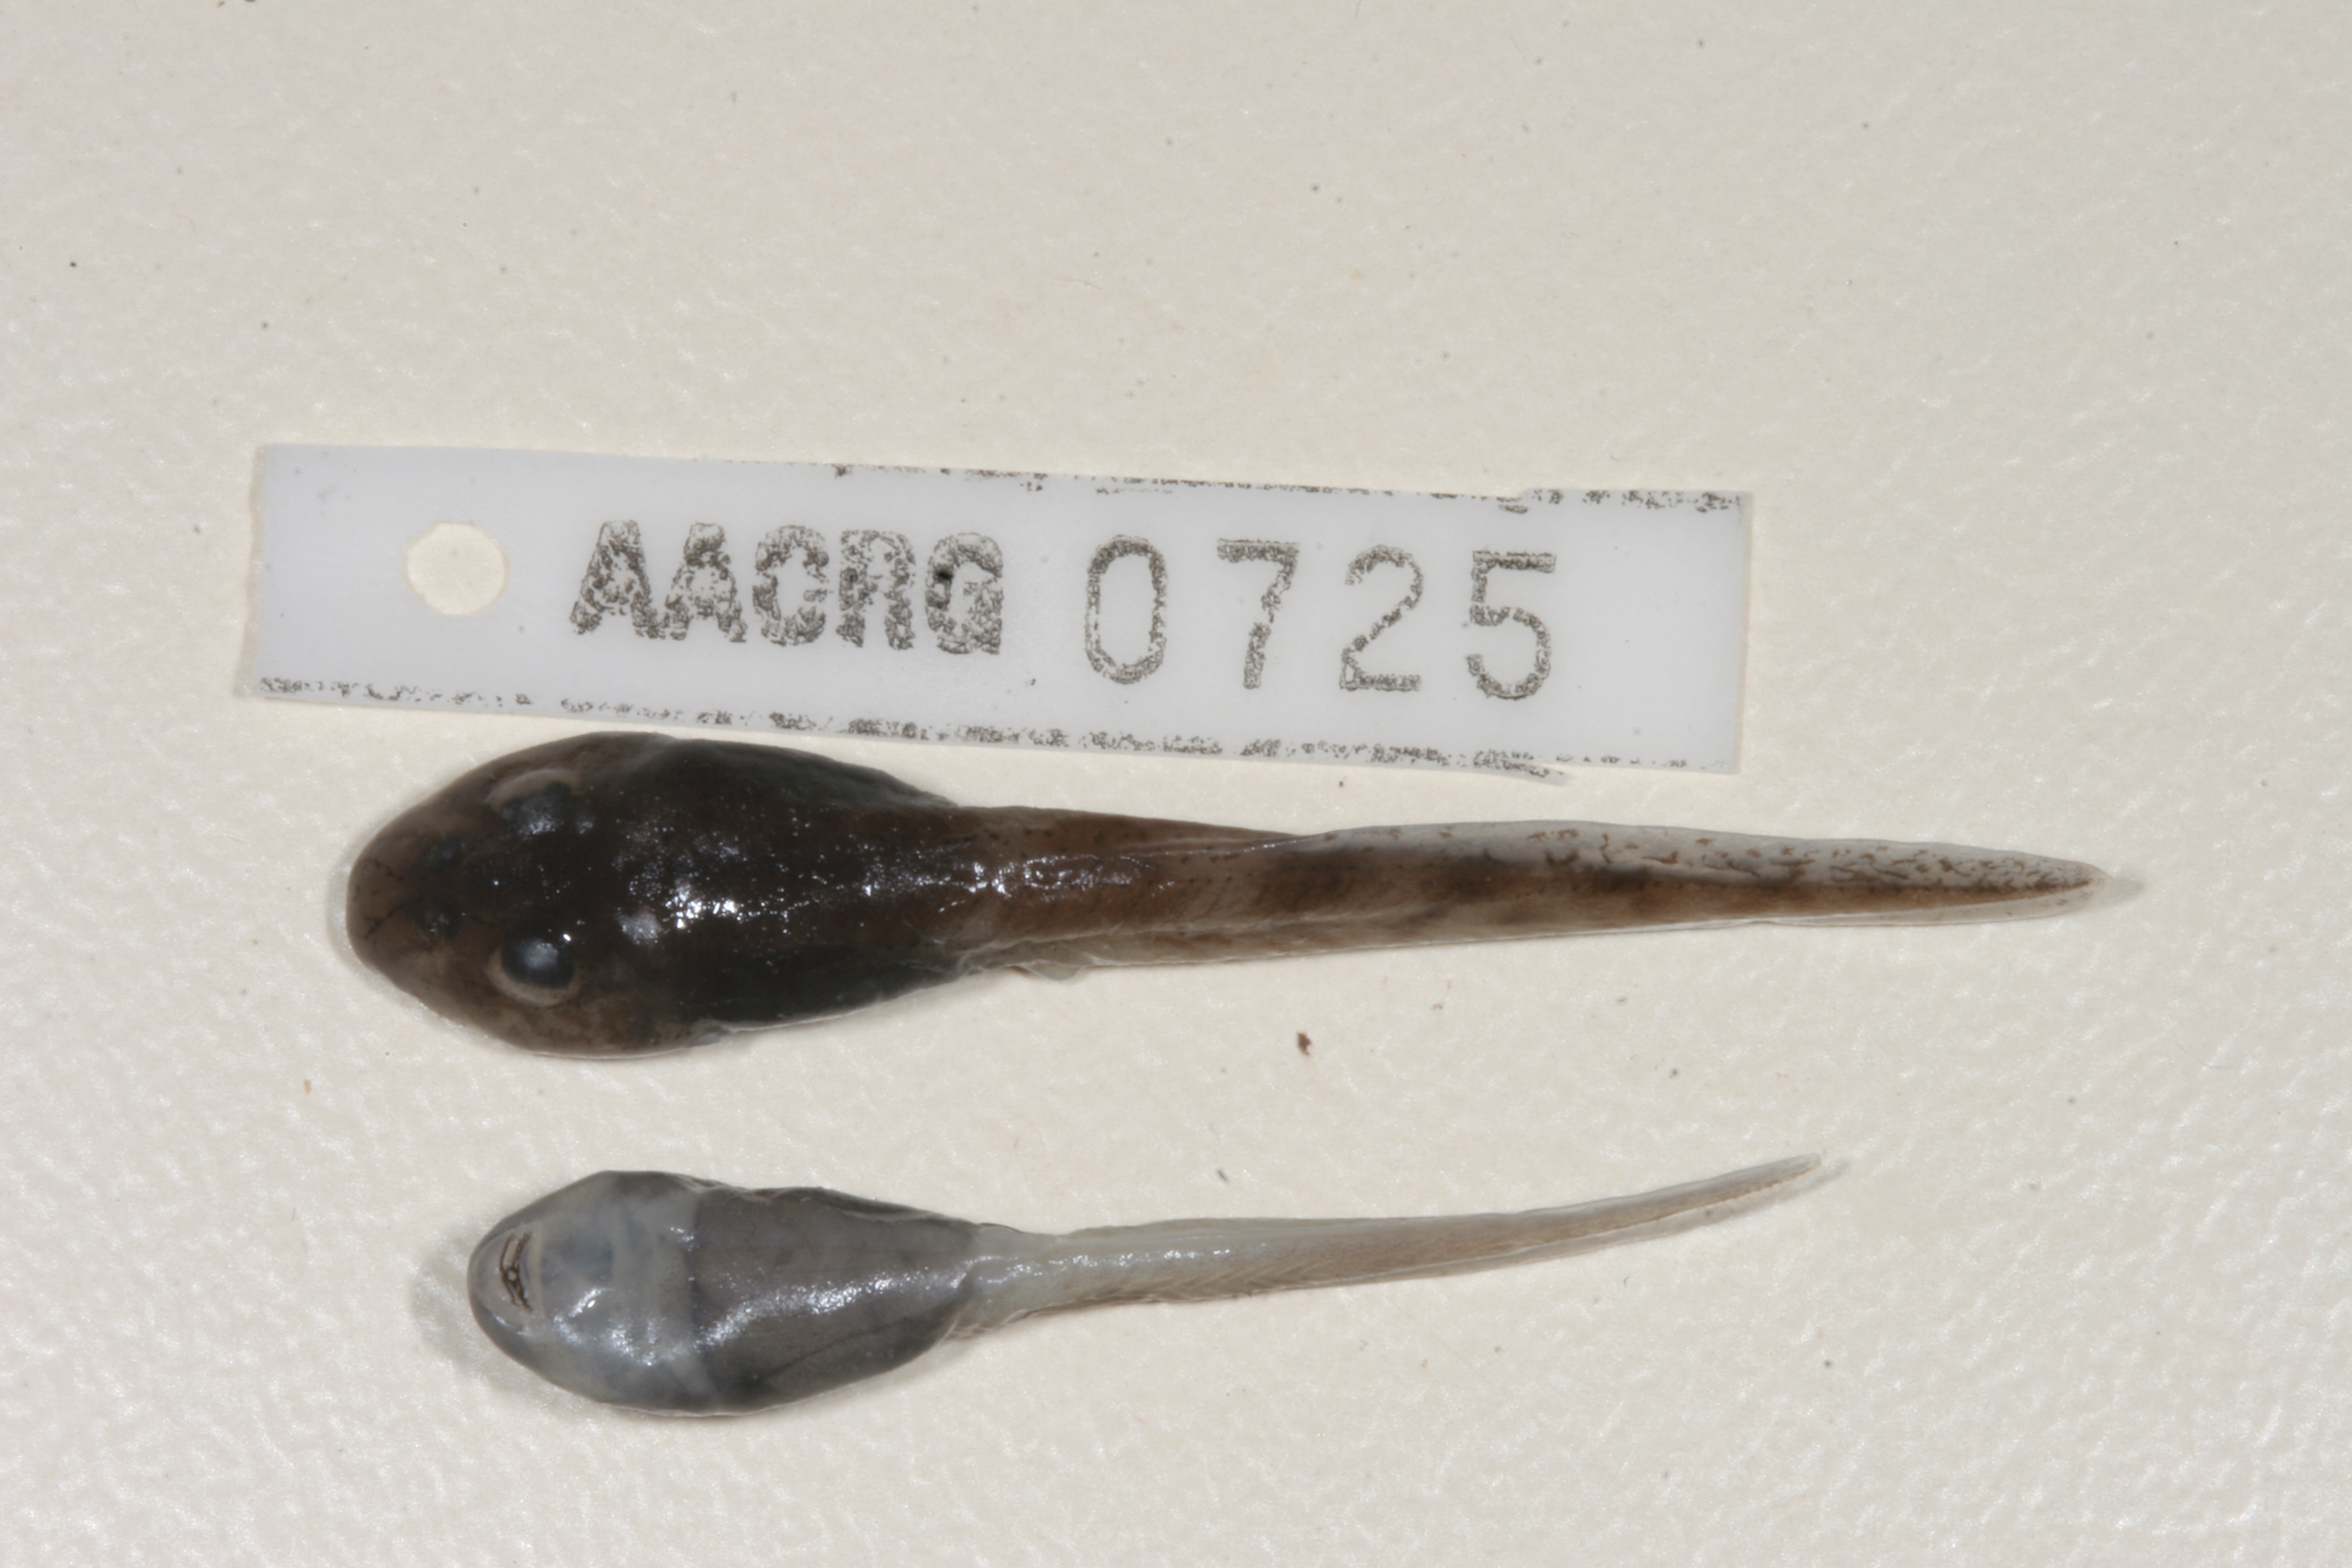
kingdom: Animalia
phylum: Chordata
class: Amphibia
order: Anura
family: Pyxicephalidae
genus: Amietia
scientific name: Amietia vertebralis
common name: Drakensberg stream frog
